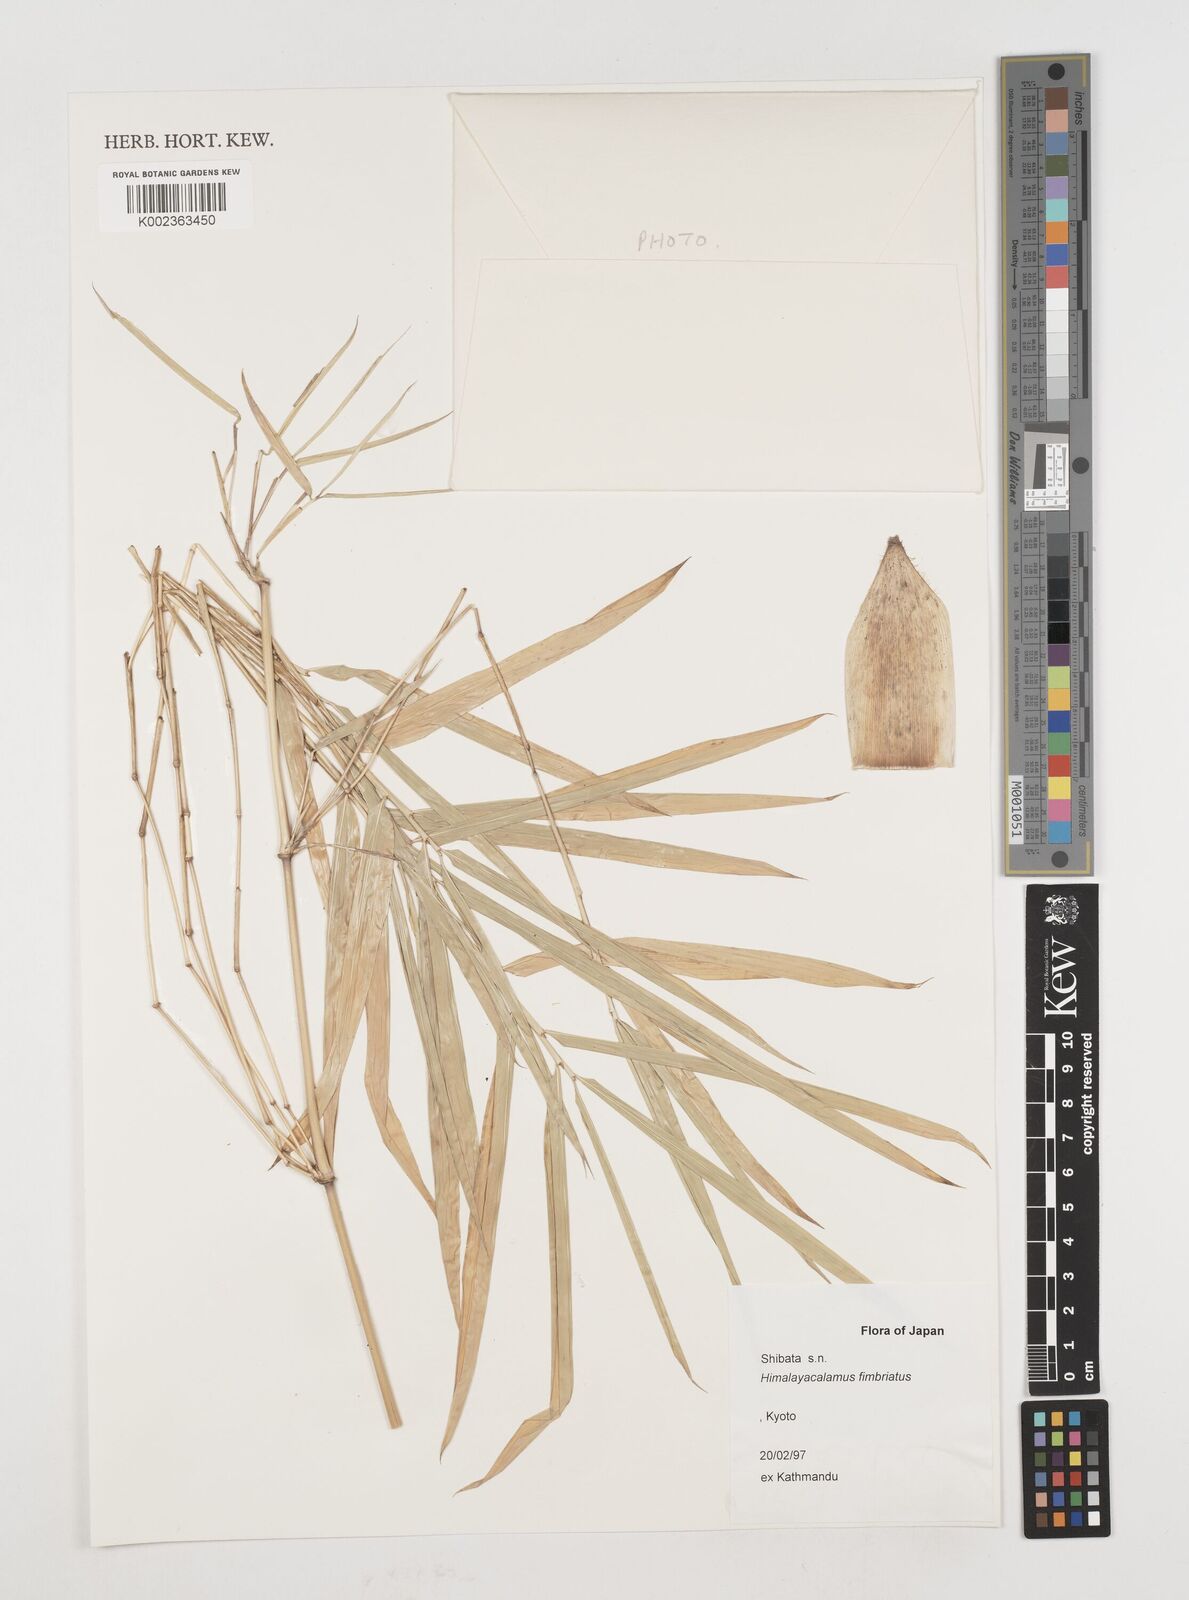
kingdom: Plantae
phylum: Tracheophyta
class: Liliopsida
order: Poales
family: Poaceae
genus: Himalayacalamus
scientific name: Himalayacalamus fimbriatus
